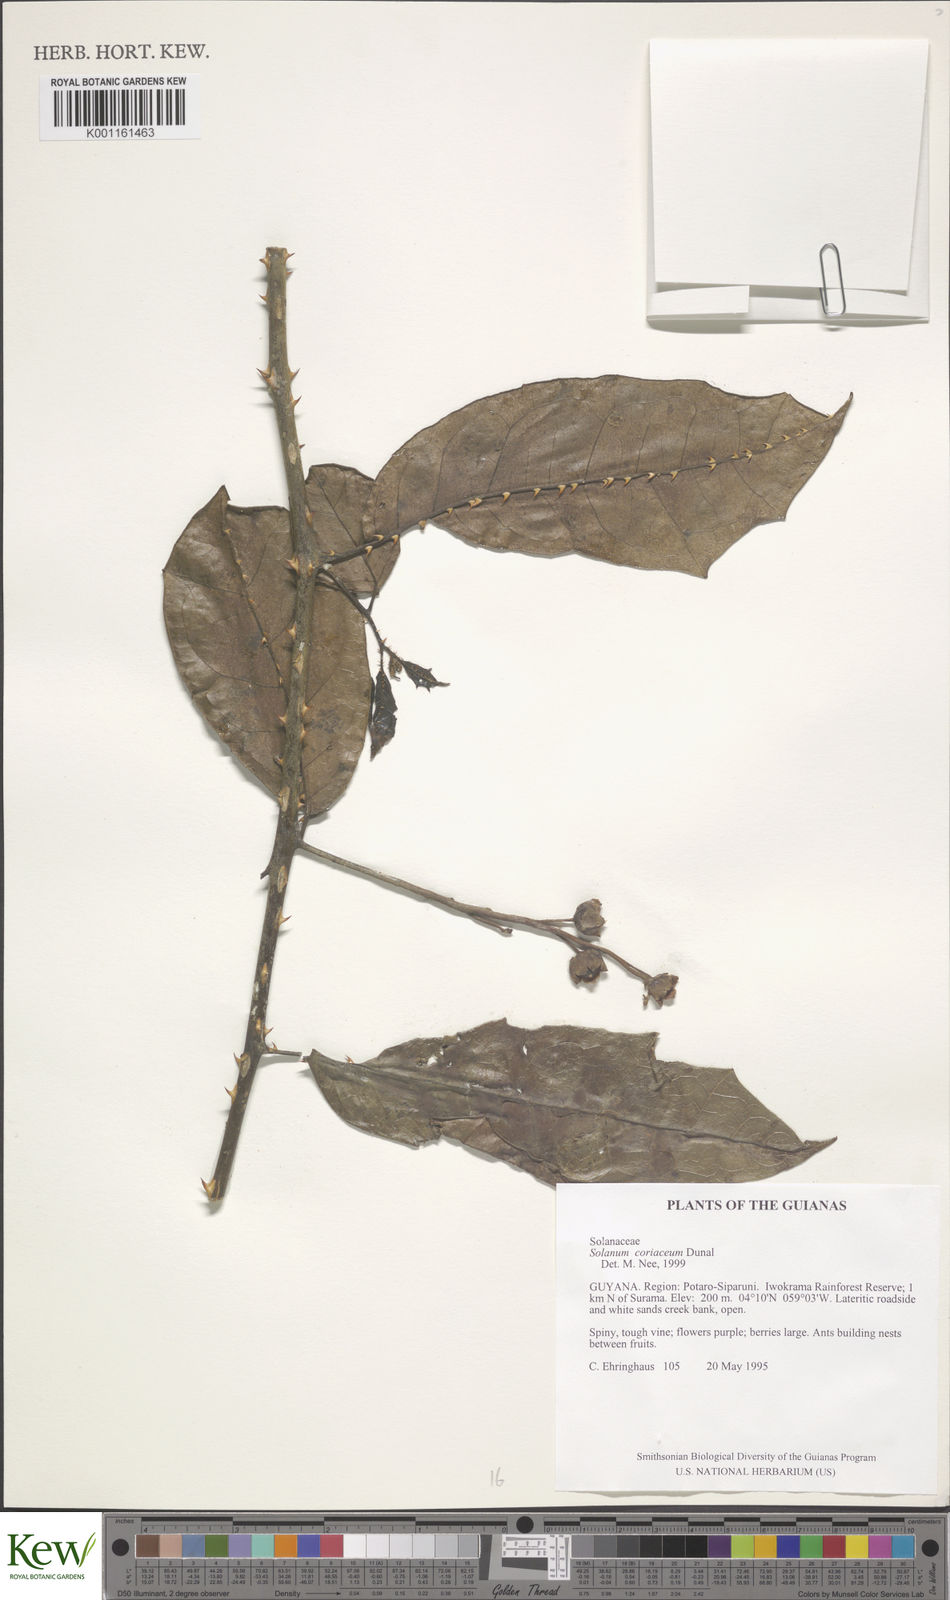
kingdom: Plantae
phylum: Tracheophyta
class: Magnoliopsida
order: Solanales
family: Solanaceae
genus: Solanum
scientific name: Solanum coriaceum
